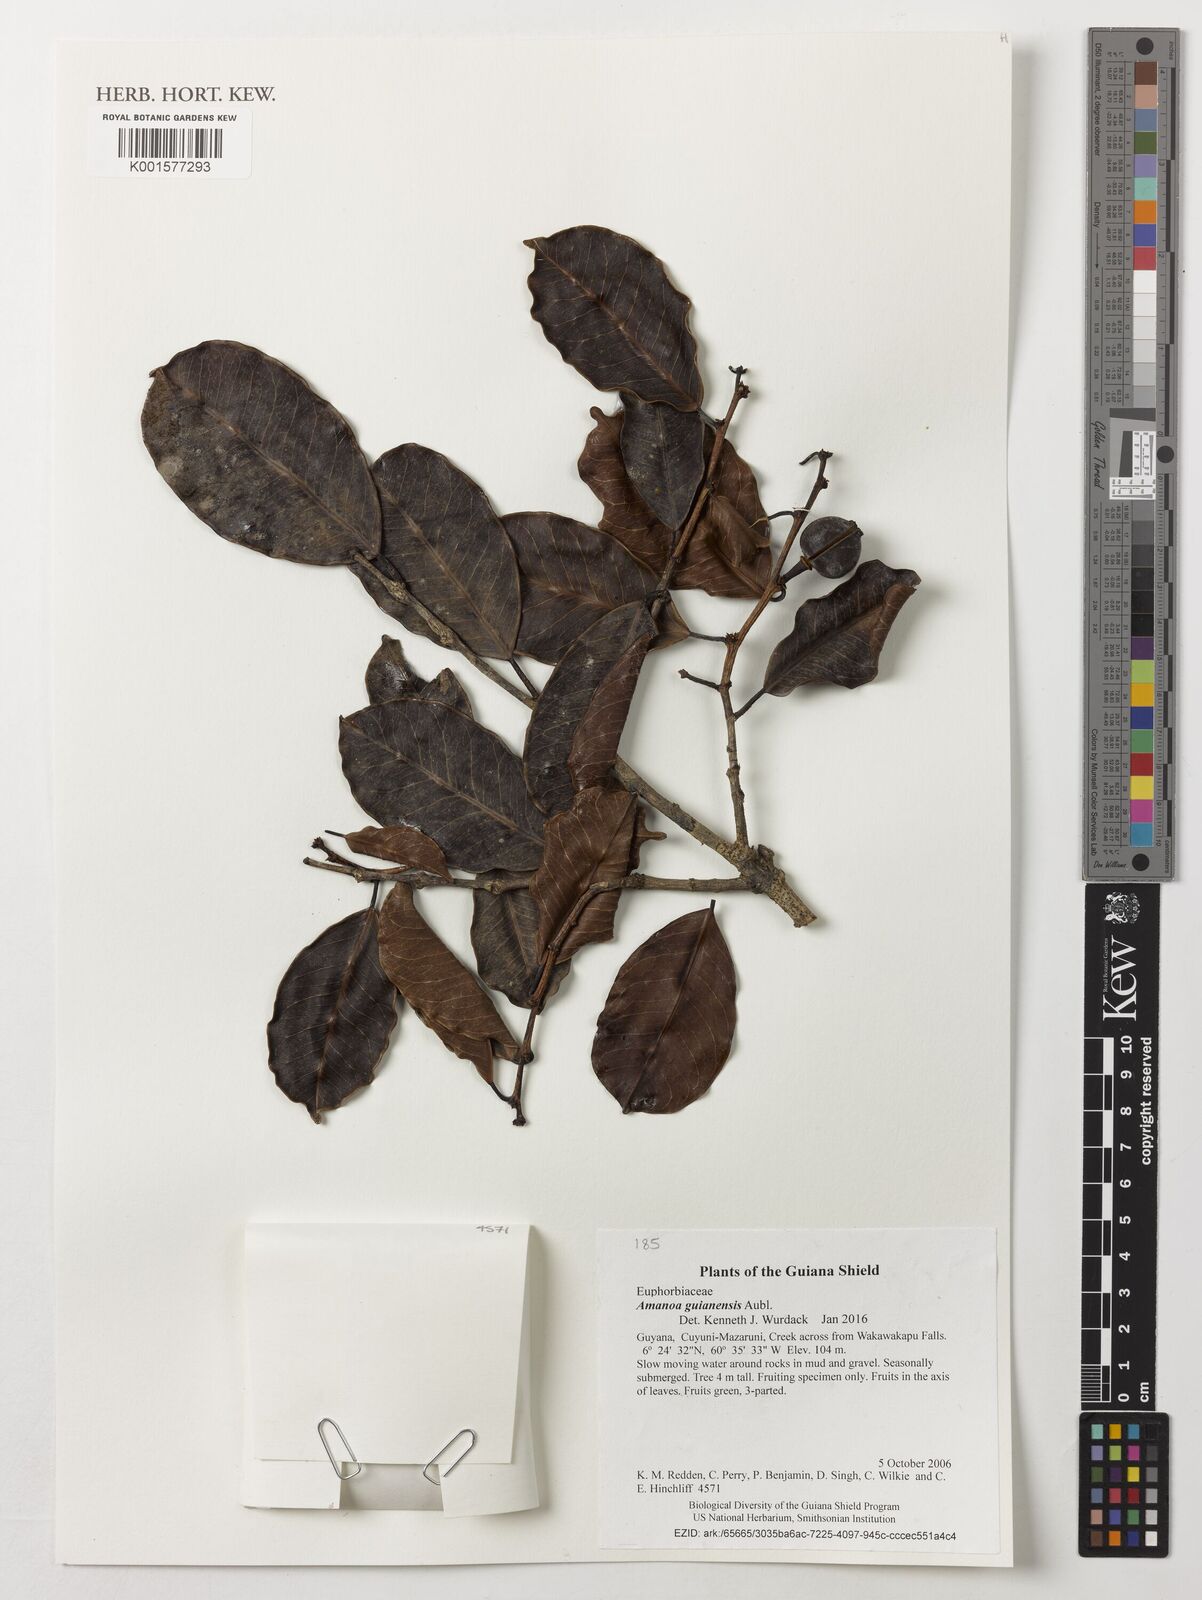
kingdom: Plantae
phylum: Tracheophyta
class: Magnoliopsida
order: Malpighiales
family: Phyllanthaceae
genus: Amanoa
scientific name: Amanoa guianensis
